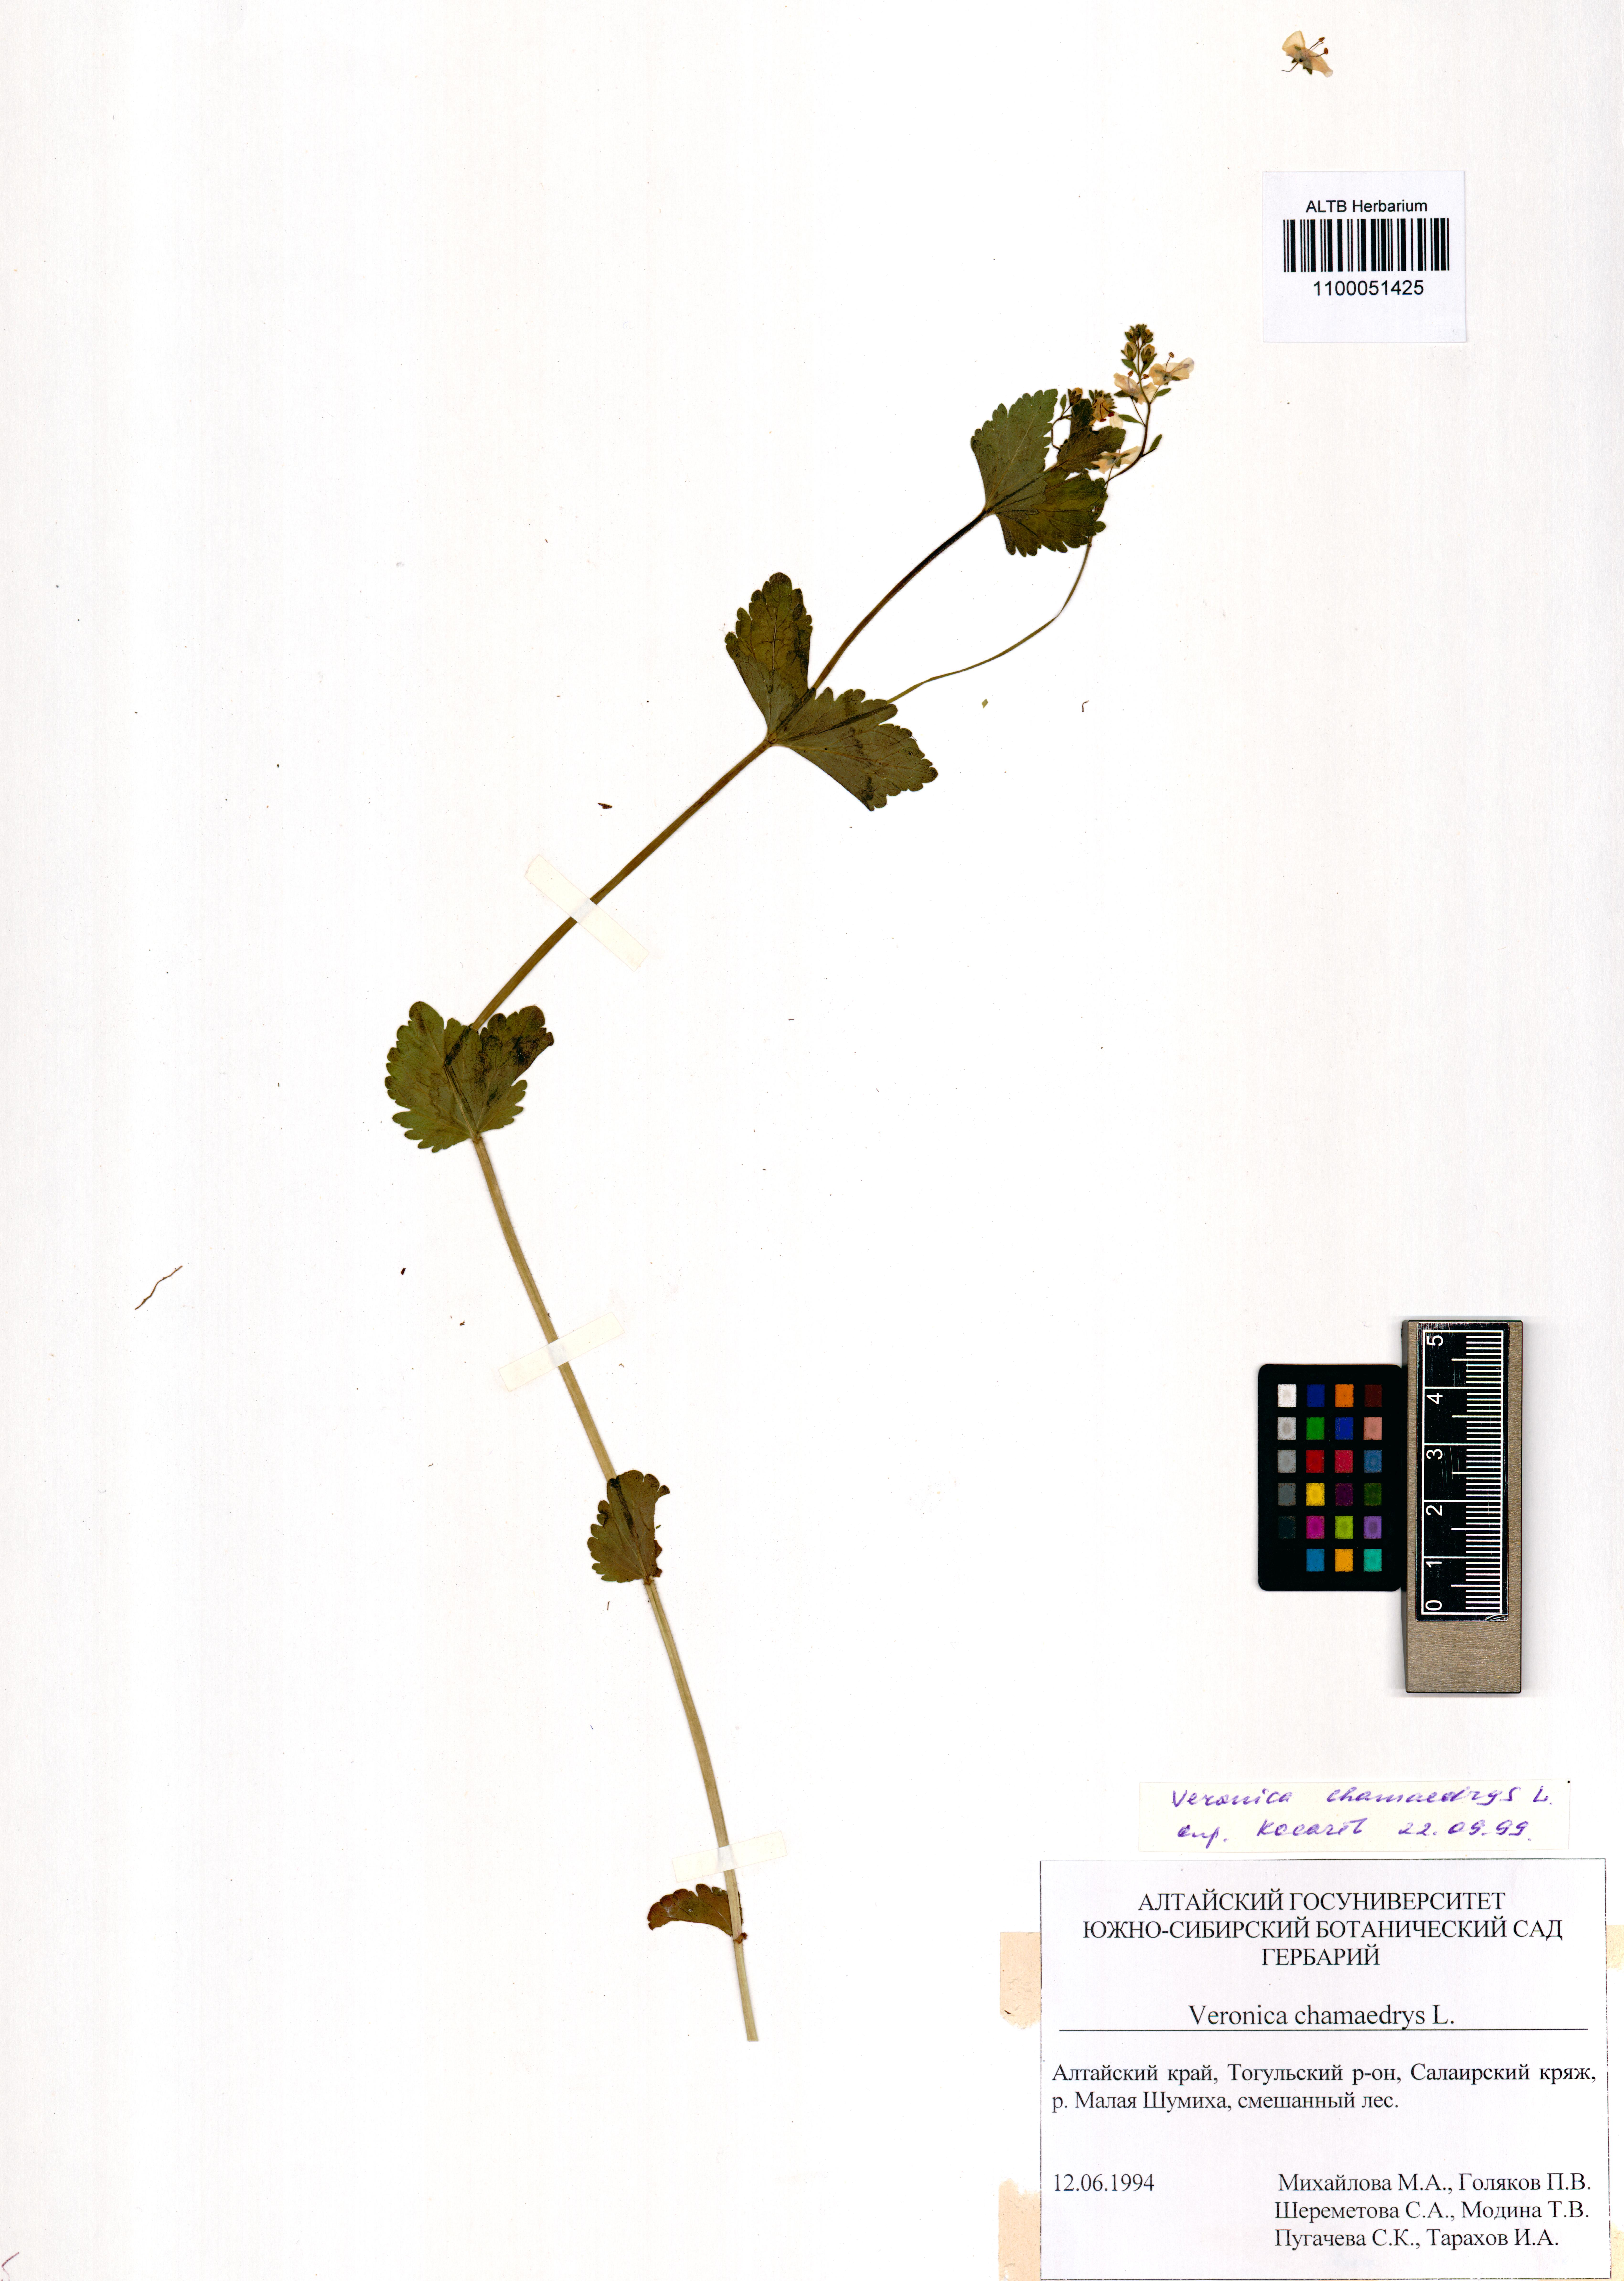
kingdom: Plantae
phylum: Tracheophyta
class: Magnoliopsida
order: Lamiales
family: Plantaginaceae
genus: Veronica
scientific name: Veronica chamaedrys
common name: Germander speedwell
